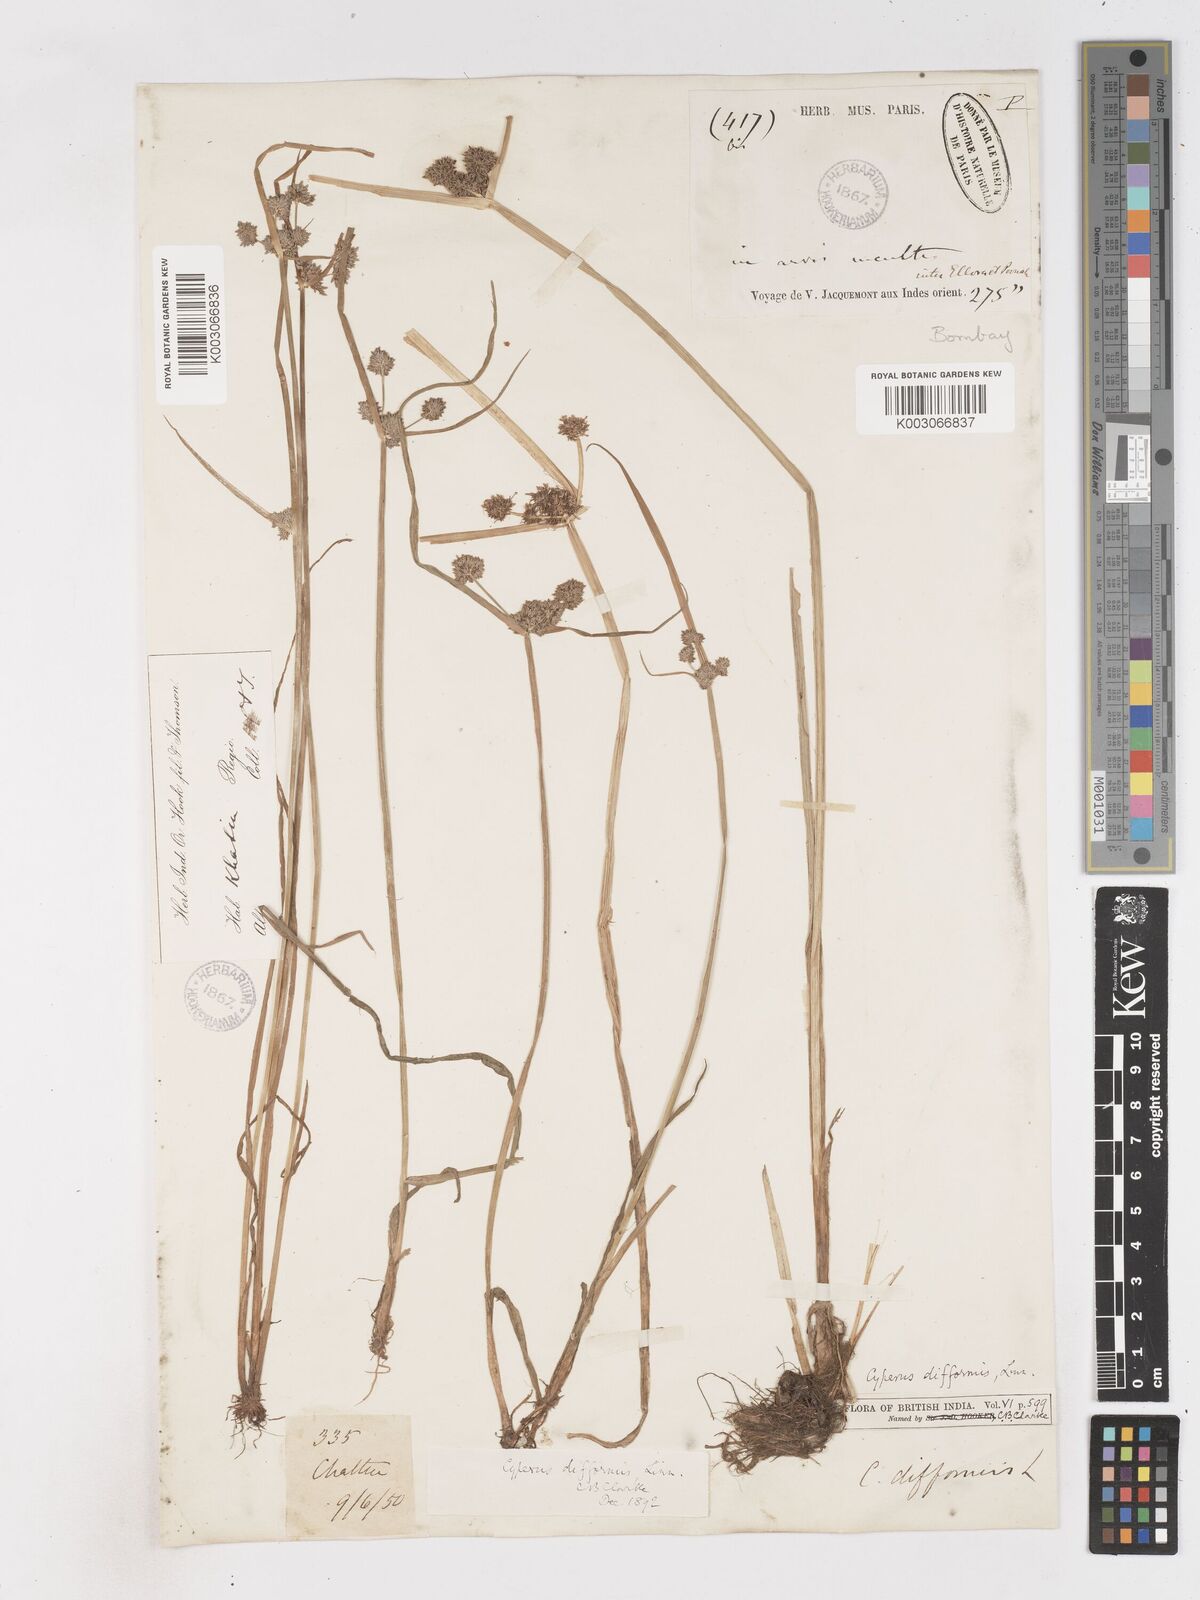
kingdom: Plantae
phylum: Tracheophyta
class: Liliopsida
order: Poales
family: Cyperaceae
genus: Cyperus
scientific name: Cyperus difformis
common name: Variable flatsedge
